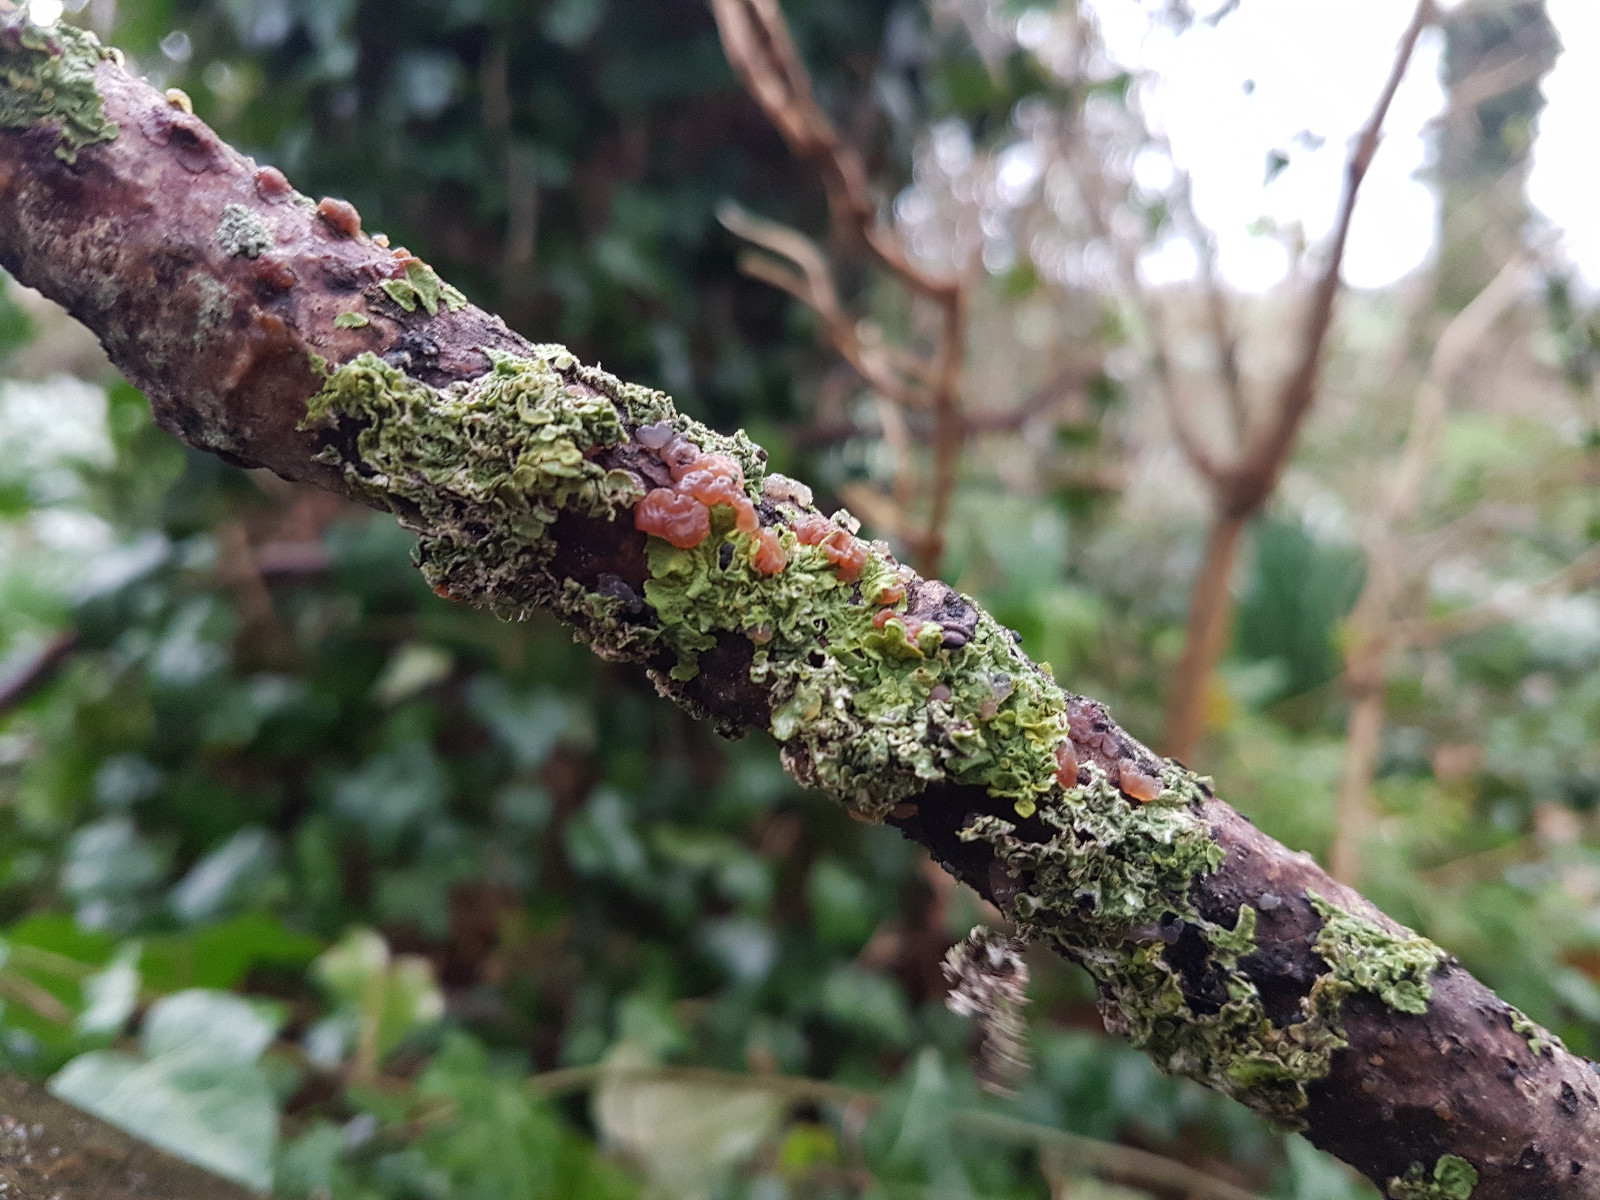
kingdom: Fungi
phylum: Basidiomycota
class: Agaricomycetes
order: Auriculariales
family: Hyaloriaceae
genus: Myxarium
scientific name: Myxarium hyalinum
